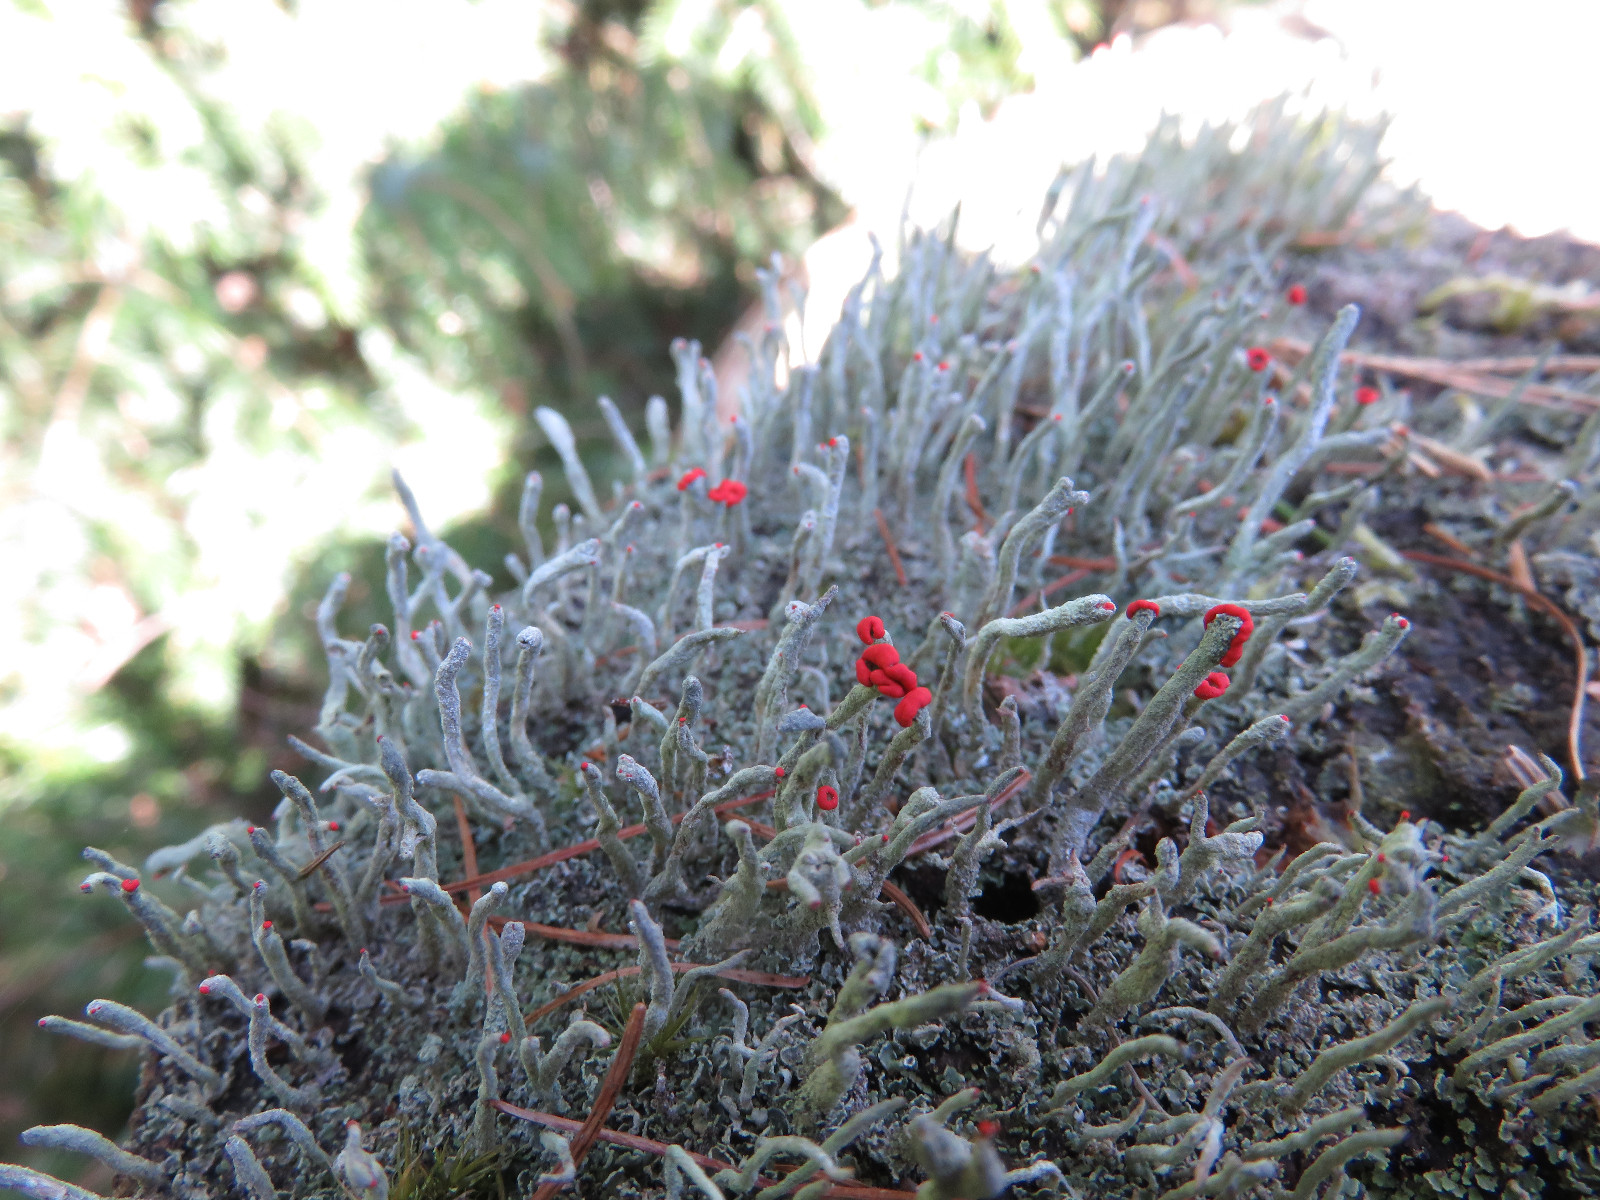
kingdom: Fungi
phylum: Ascomycota
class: Lecanoromycetes
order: Lecanorales
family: Cladoniaceae
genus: Cladonia
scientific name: Cladonia floerkeana
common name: lakrød bægerlav
